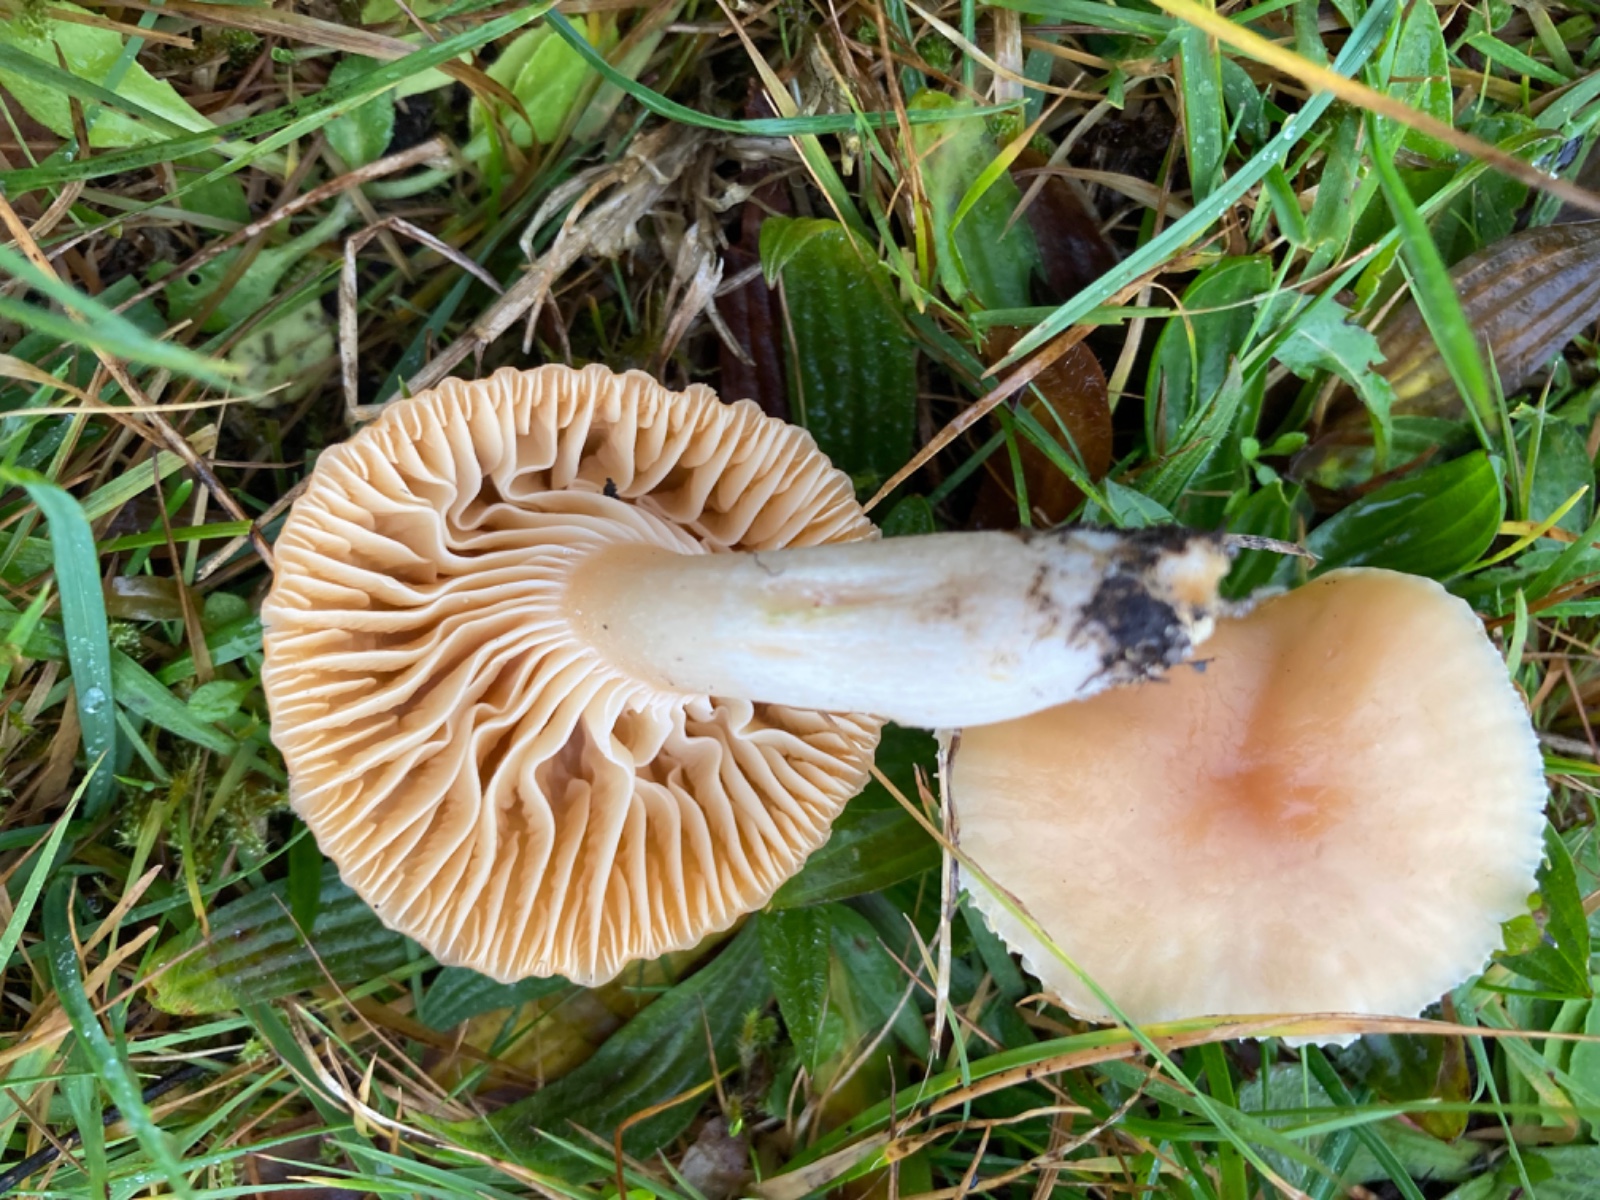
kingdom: Fungi
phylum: Basidiomycota
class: Agaricomycetes
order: Agaricales
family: Hygrophoraceae
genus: Cuphophyllus
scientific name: Cuphophyllus pratensis
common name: eng-vokshat
